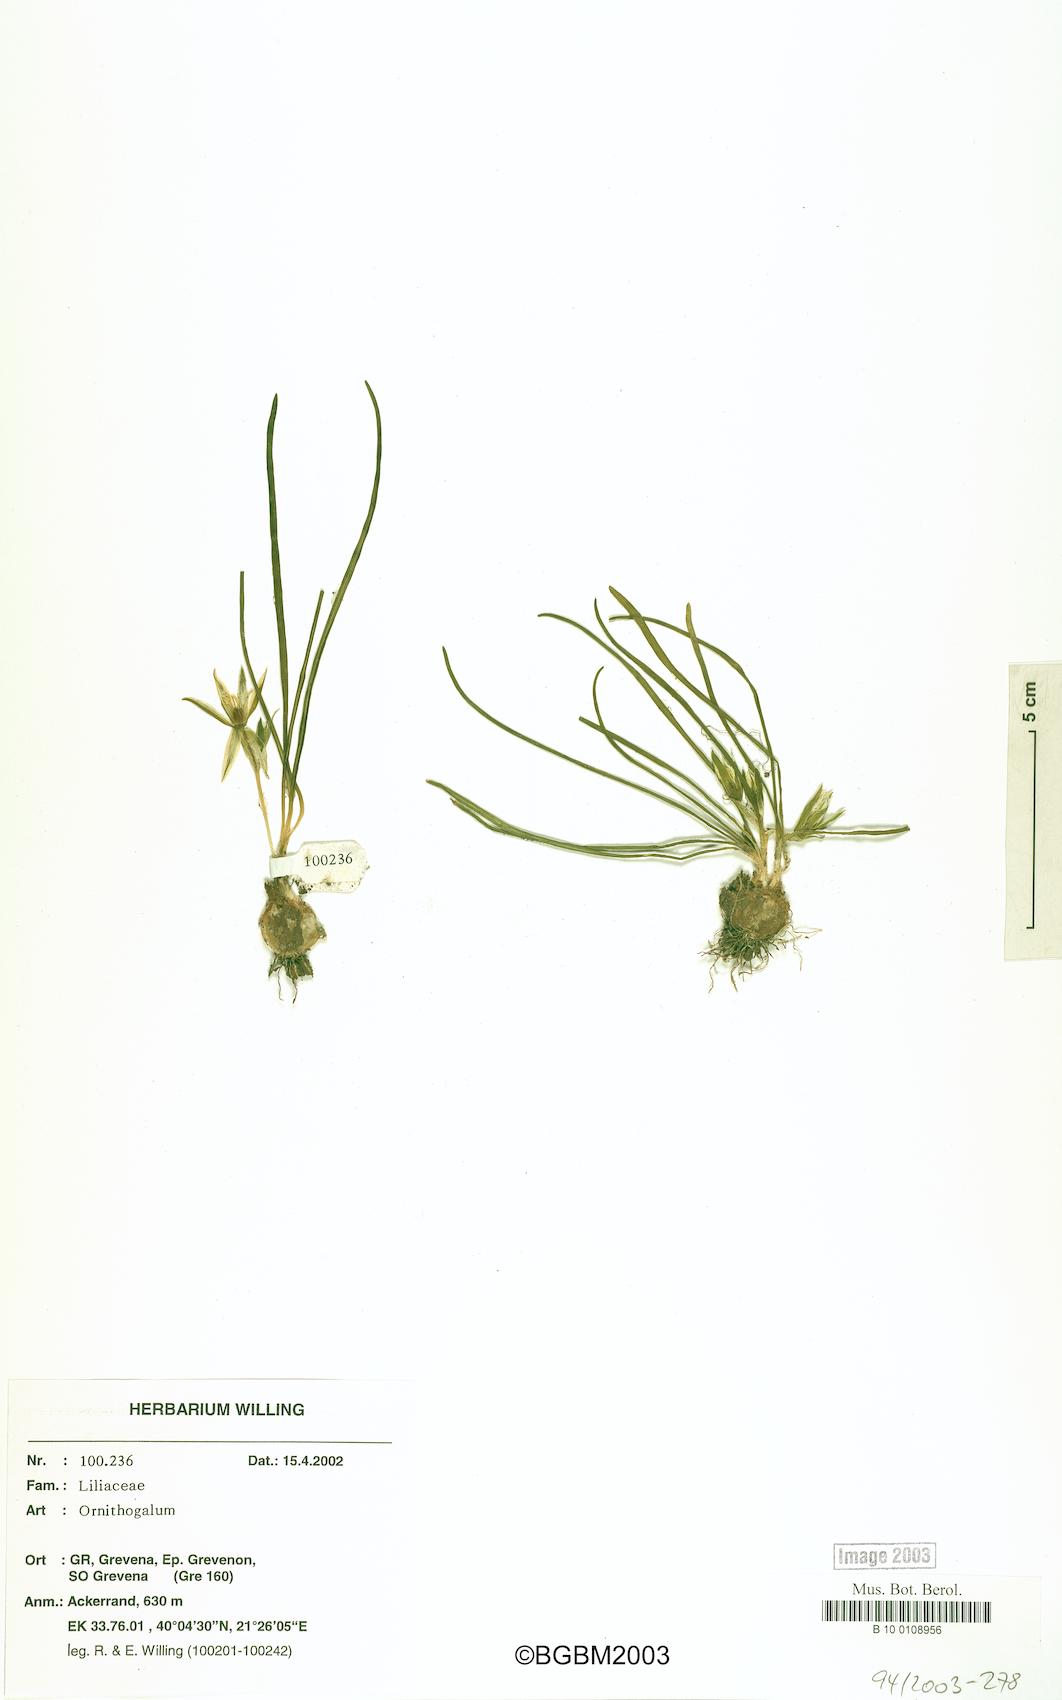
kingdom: Plantae
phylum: Tracheophyta
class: Liliopsida
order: Asparagales
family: Asparagaceae
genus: Ornithogalum
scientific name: Ornithogalum
